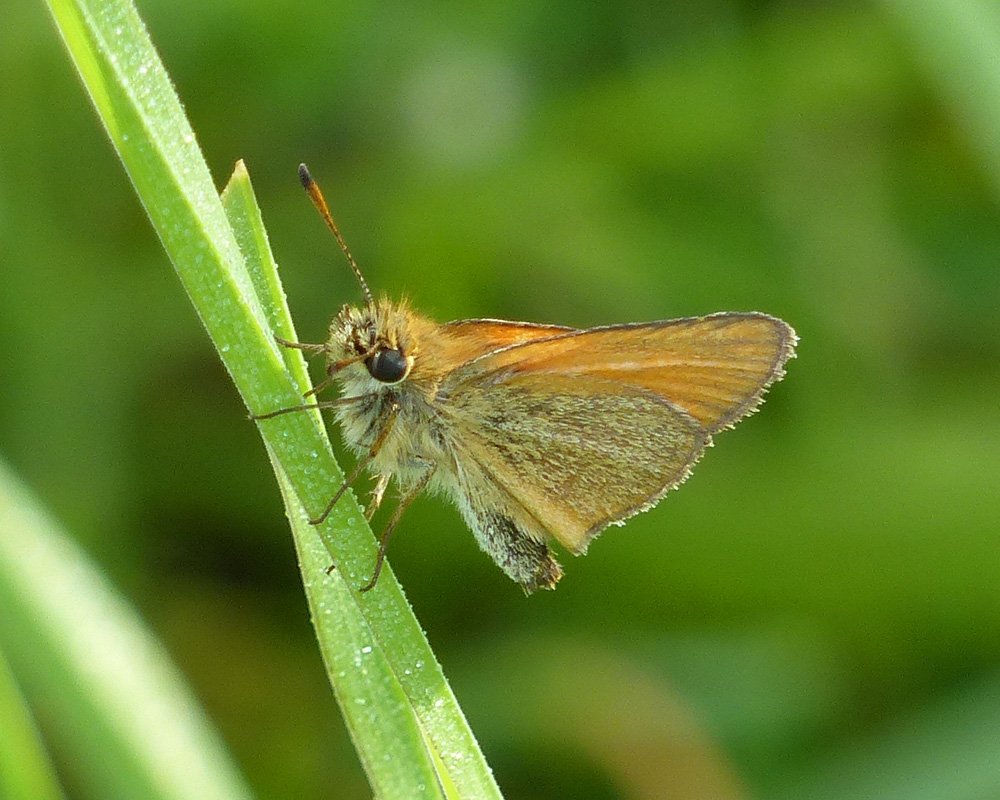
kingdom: Animalia
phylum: Arthropoda
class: Insecta
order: Lepidoptera
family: Hesperiidae
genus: Thymelicus
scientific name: Thymelicus lineola
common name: European Skipper
